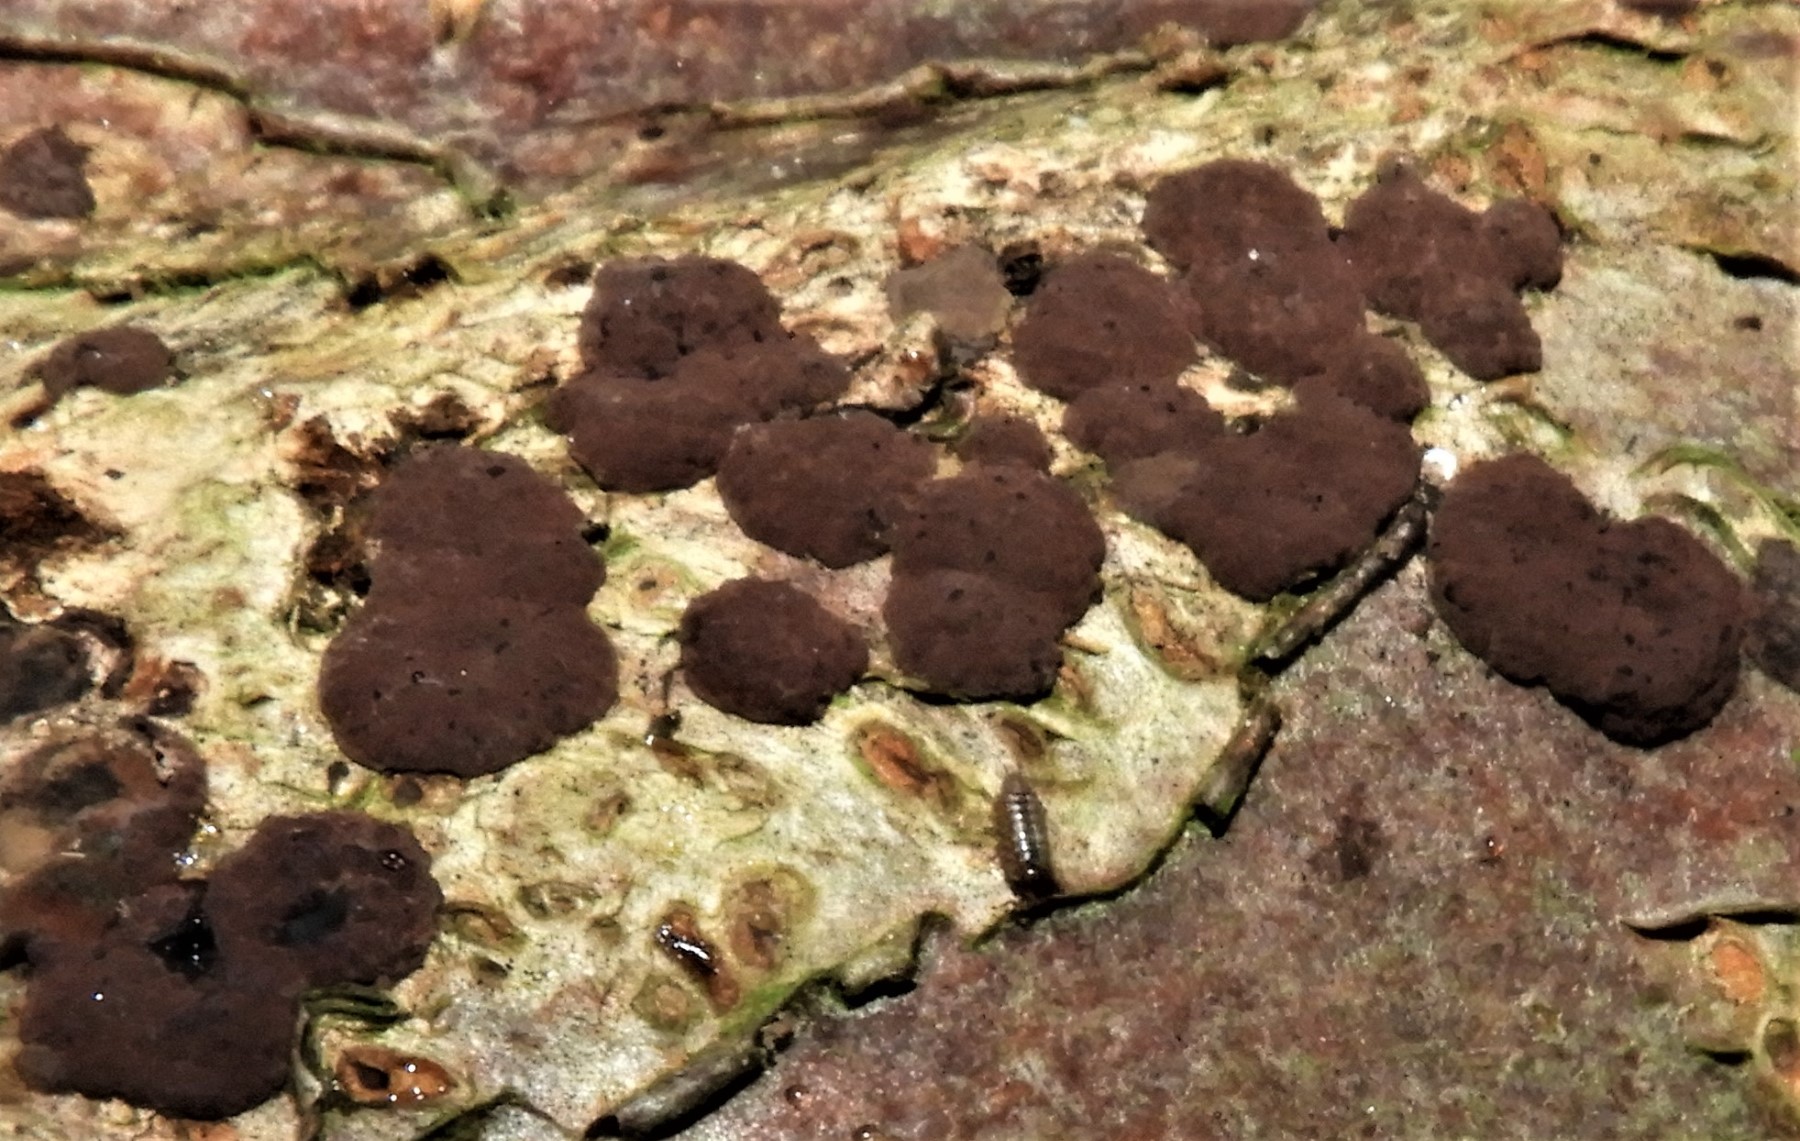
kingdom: Fungi
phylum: Ascomycota
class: Sordariomycetes
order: Xylariales
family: Hypoxylaceae
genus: Hypoxylon
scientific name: Hypoxylon fuscum
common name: kegleformet kulbær
